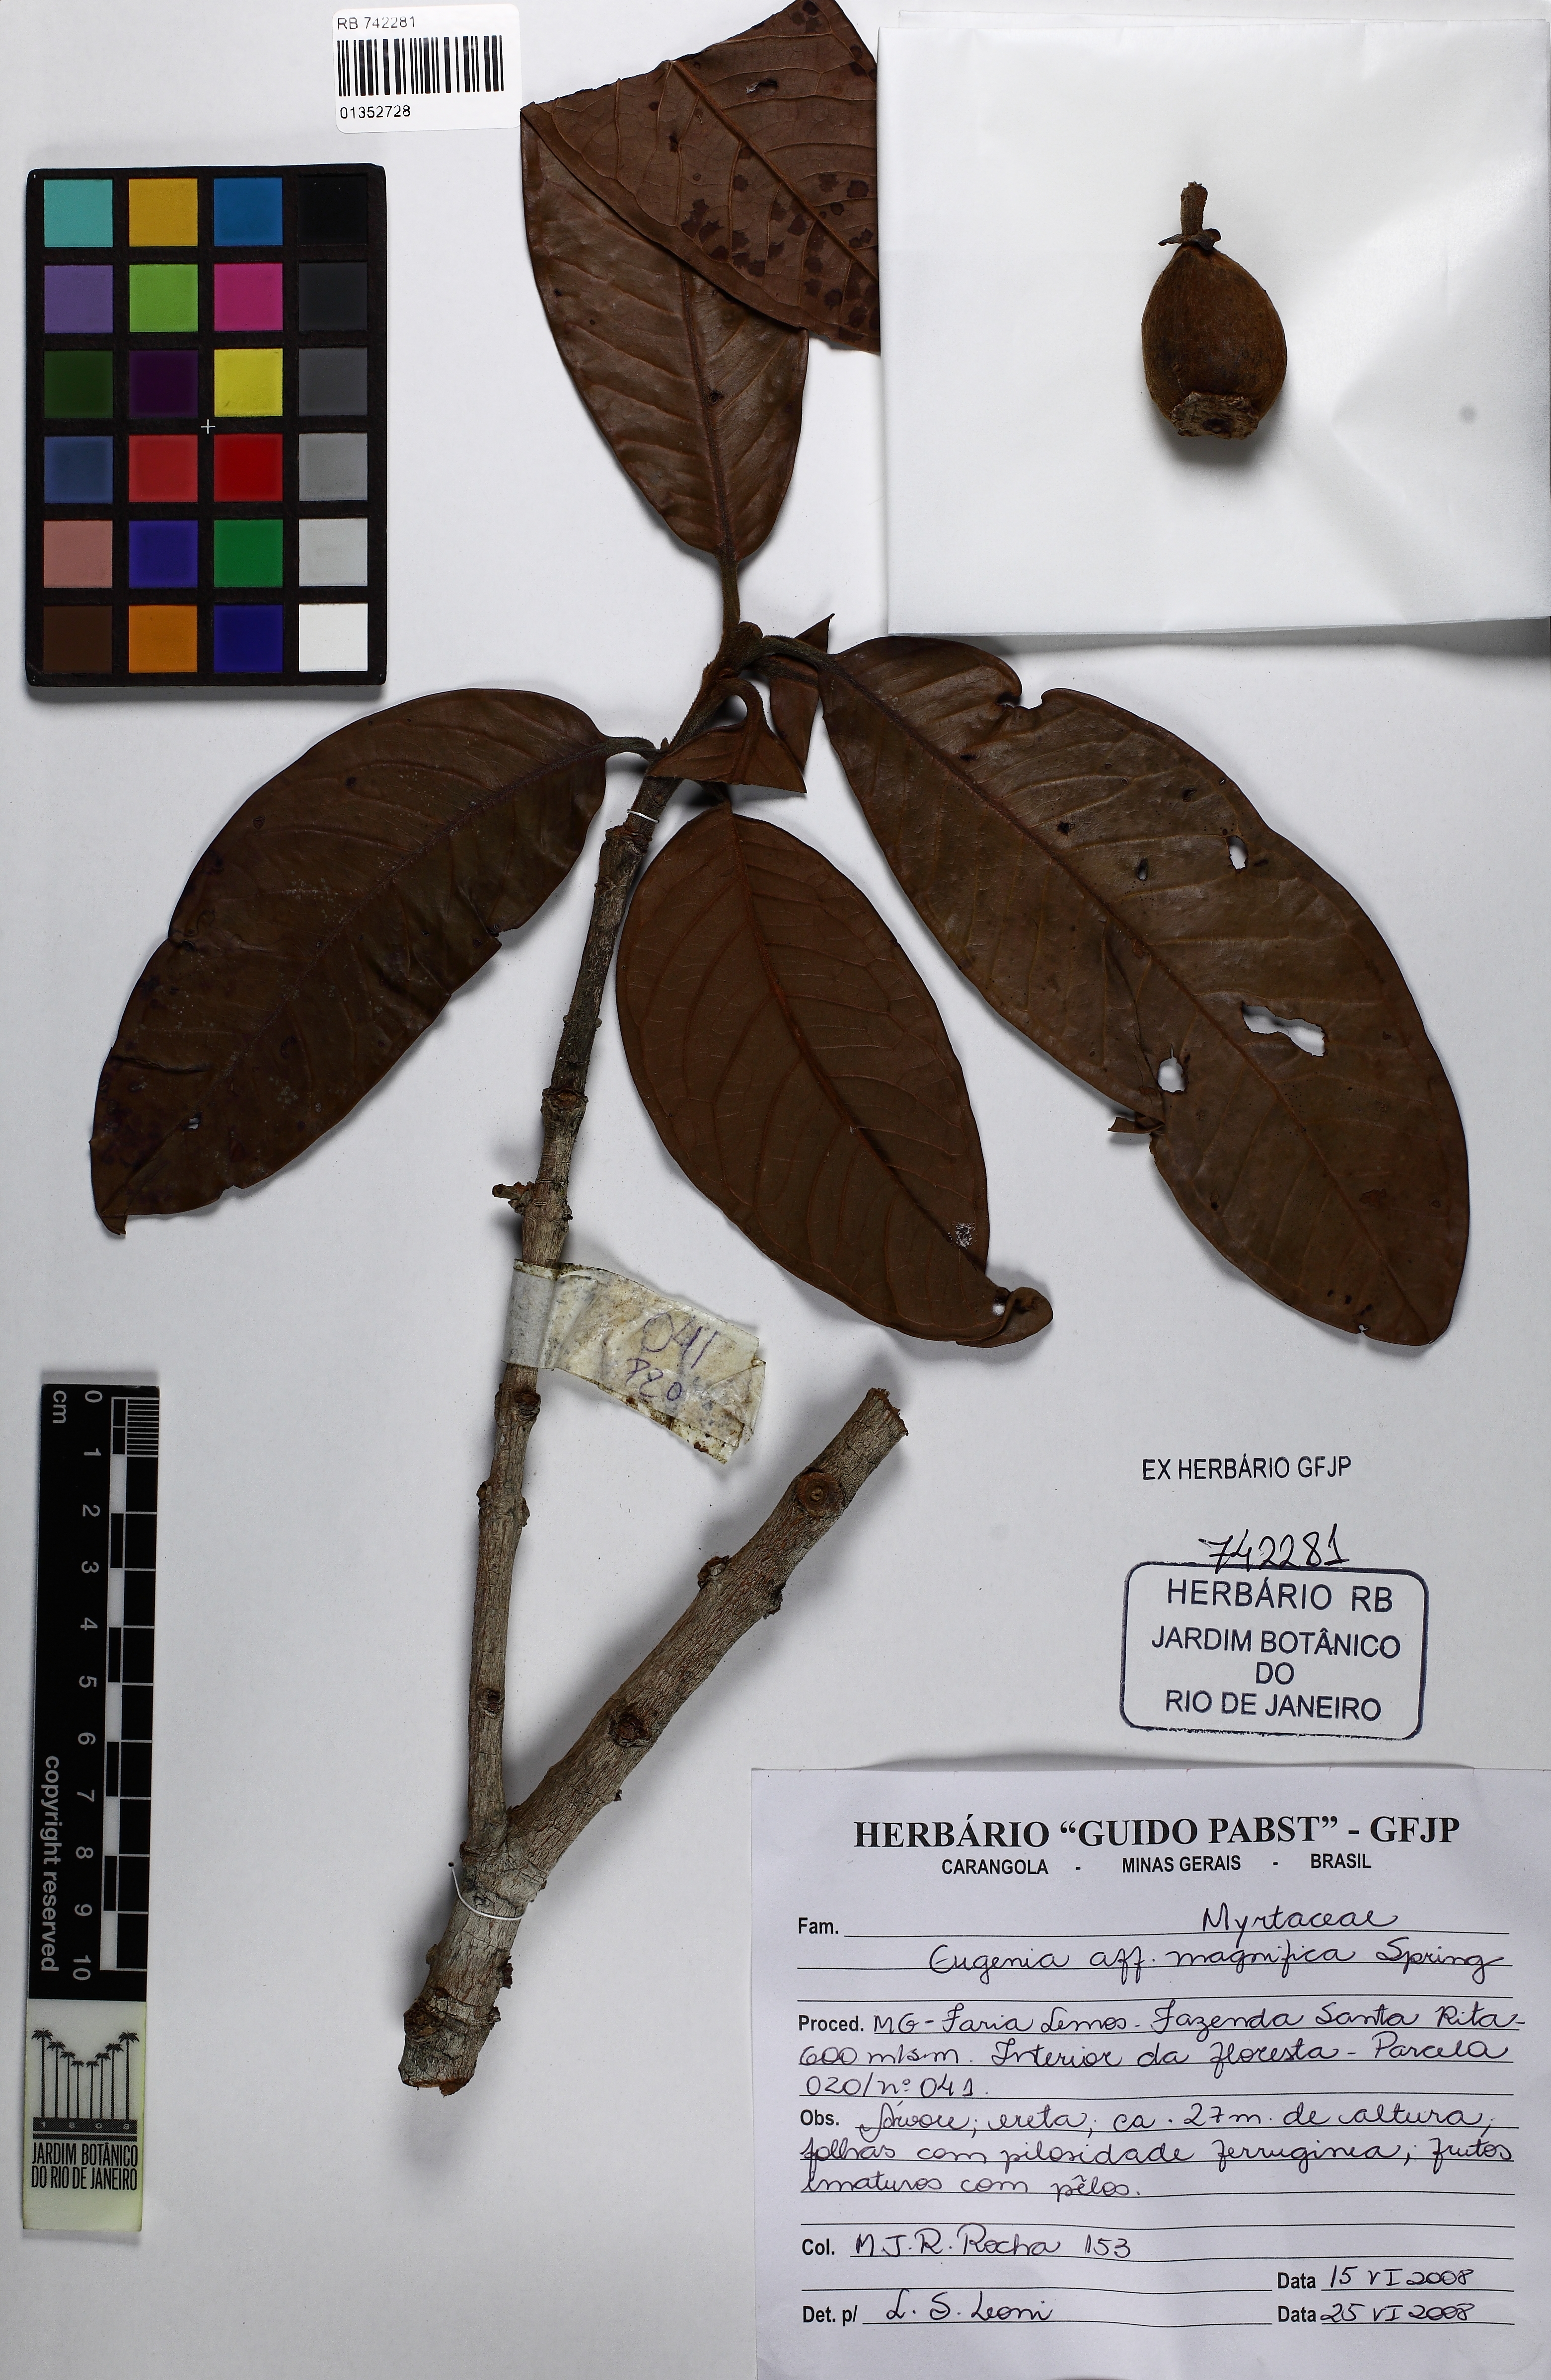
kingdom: Plantae
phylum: Tracheophyta
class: Magnoliopsida
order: Myrtales
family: Myrtaceae
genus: Eugenia
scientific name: Eugenia magnifica
